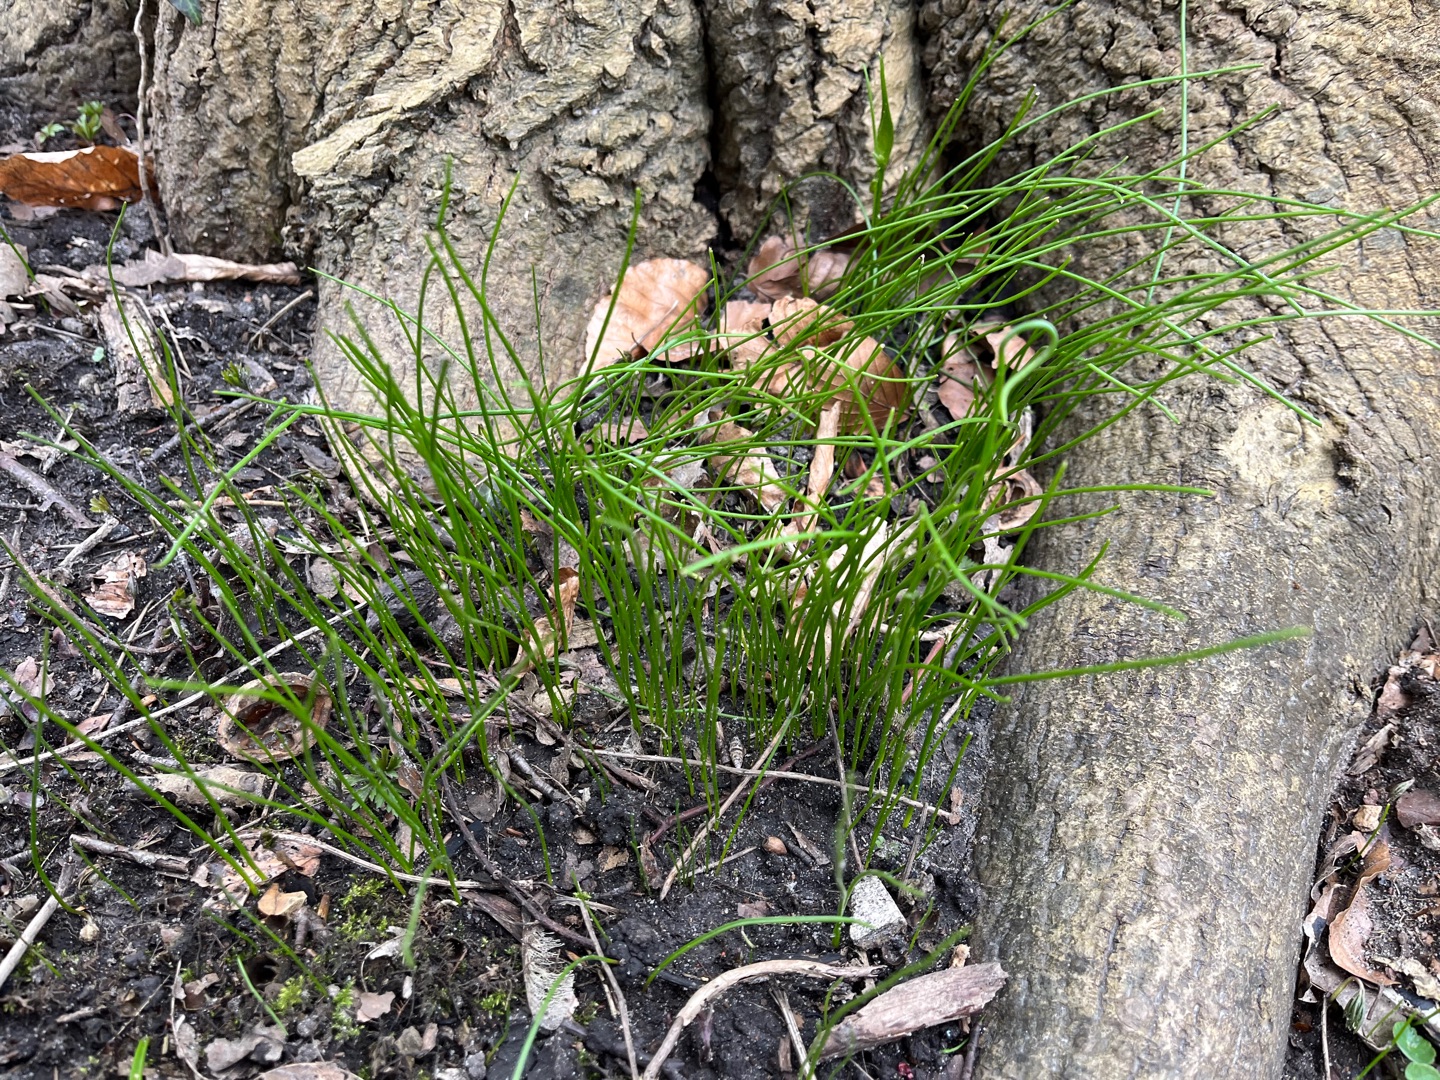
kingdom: Plantae
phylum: Tracheophyta
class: Liliopsida
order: Liliales
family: Liliaceae
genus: Gagea
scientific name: Gagea spathacea
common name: Hylster-guldstjerne
